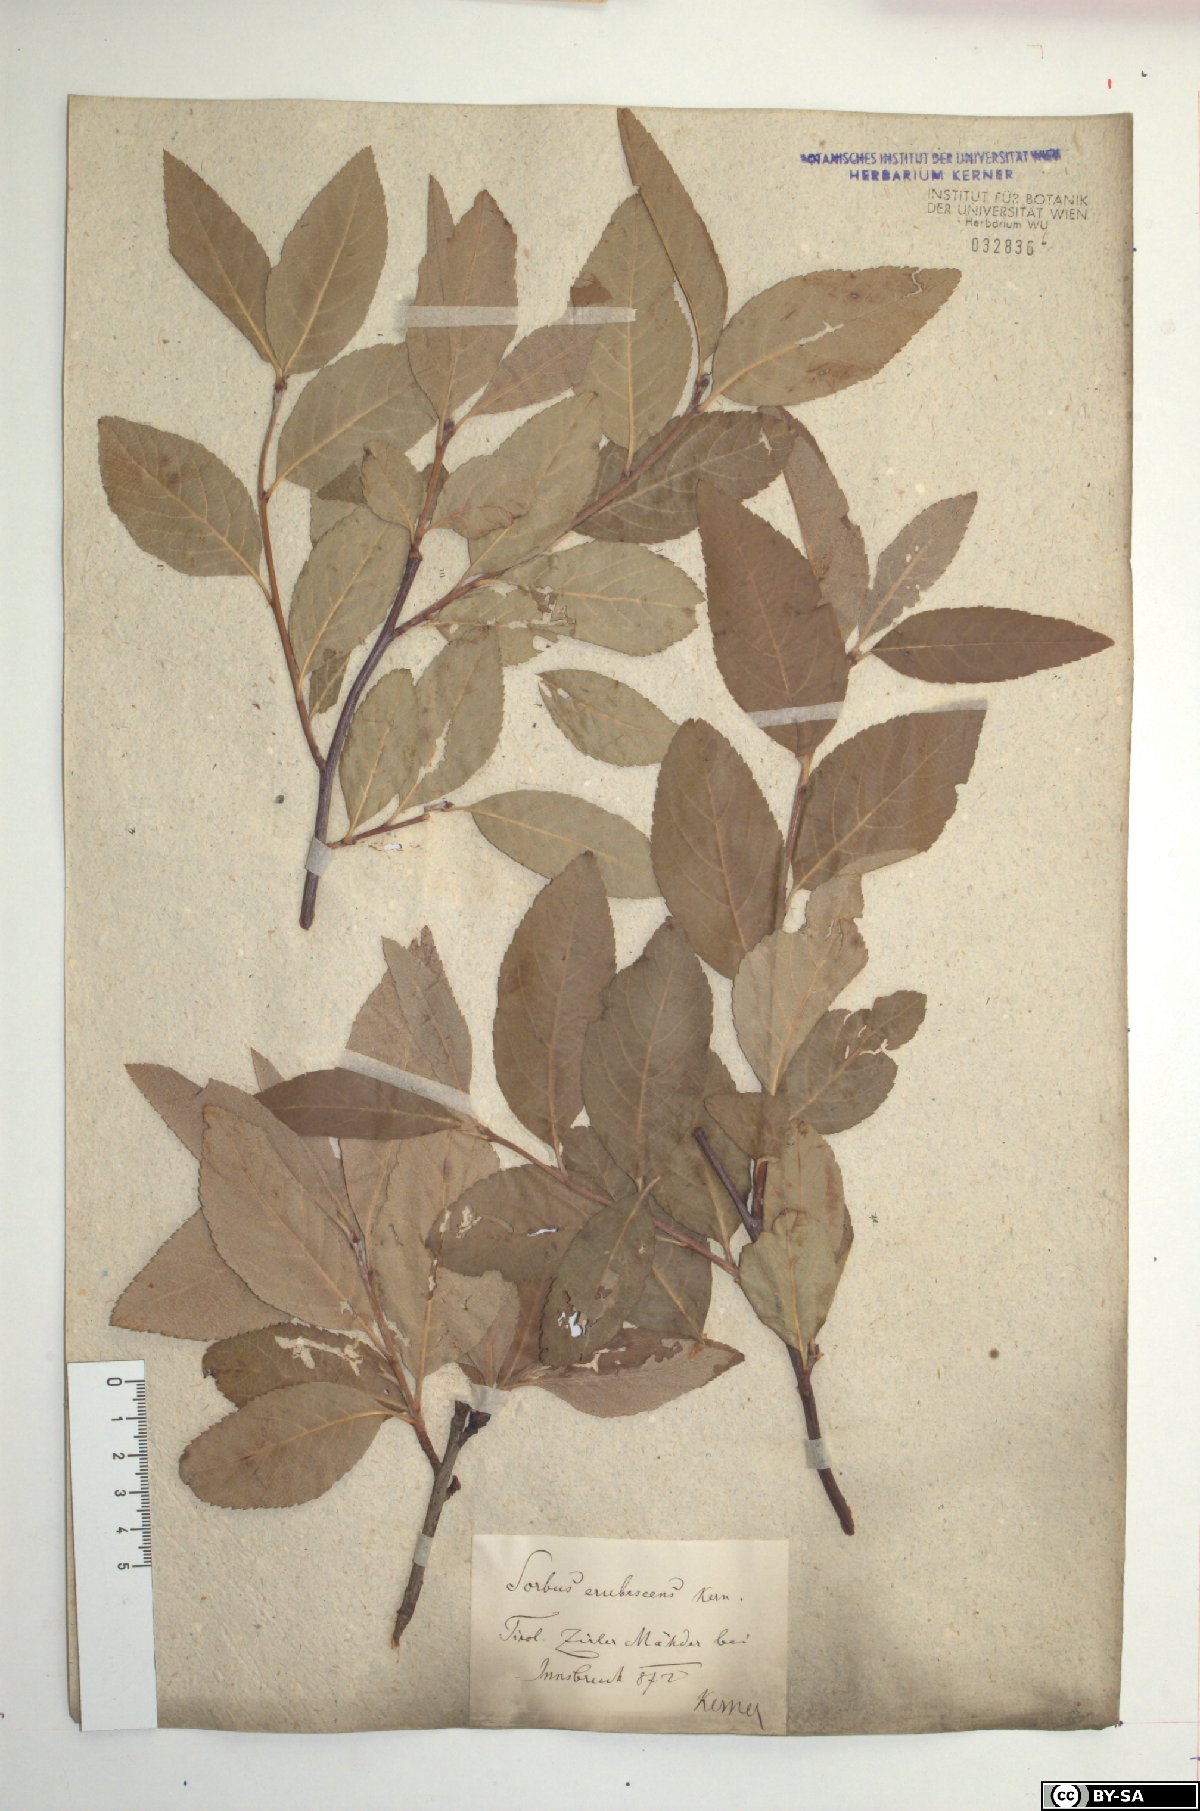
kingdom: Plantae
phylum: Tracheophyta
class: Magnoliopsida
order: Rosales
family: Rosaceae
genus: Majovskya
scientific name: Majovskya sudetica
